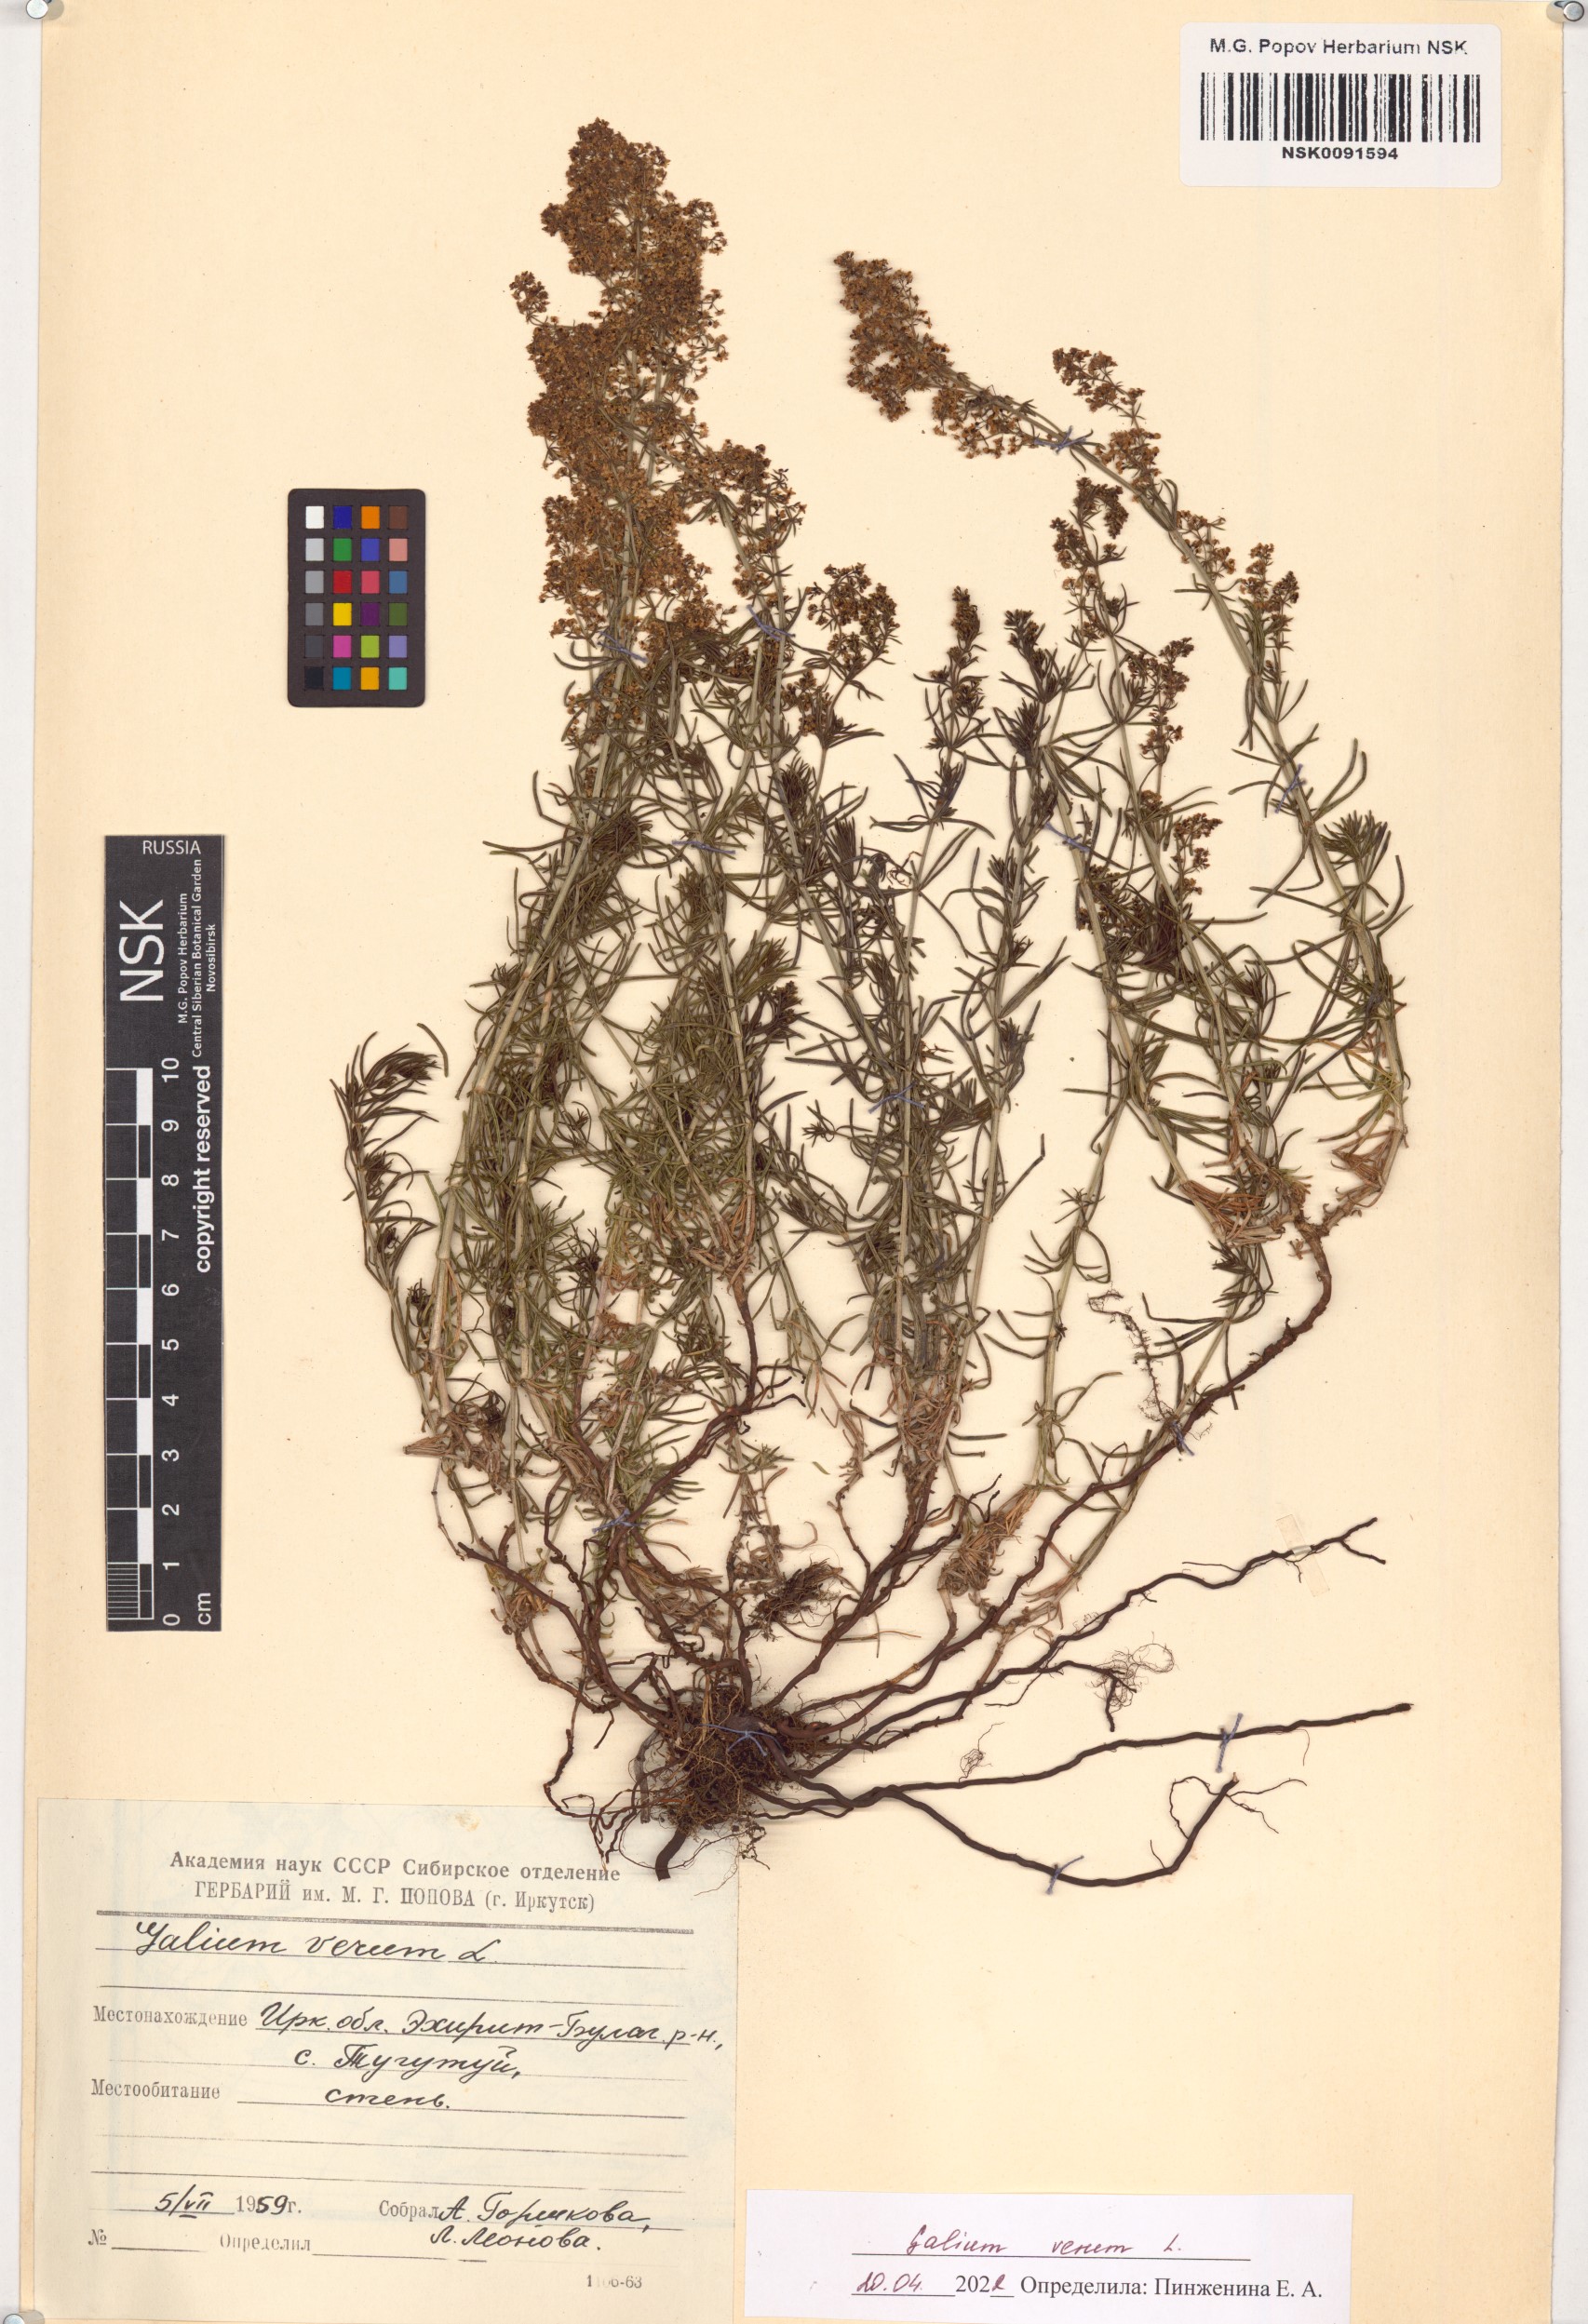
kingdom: Plantae
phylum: Tracheophyta
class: Magnoliopsida
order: Gentianales
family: Rubiaceae
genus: Galium
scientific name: Galium verum
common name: Lady's bedstraw
